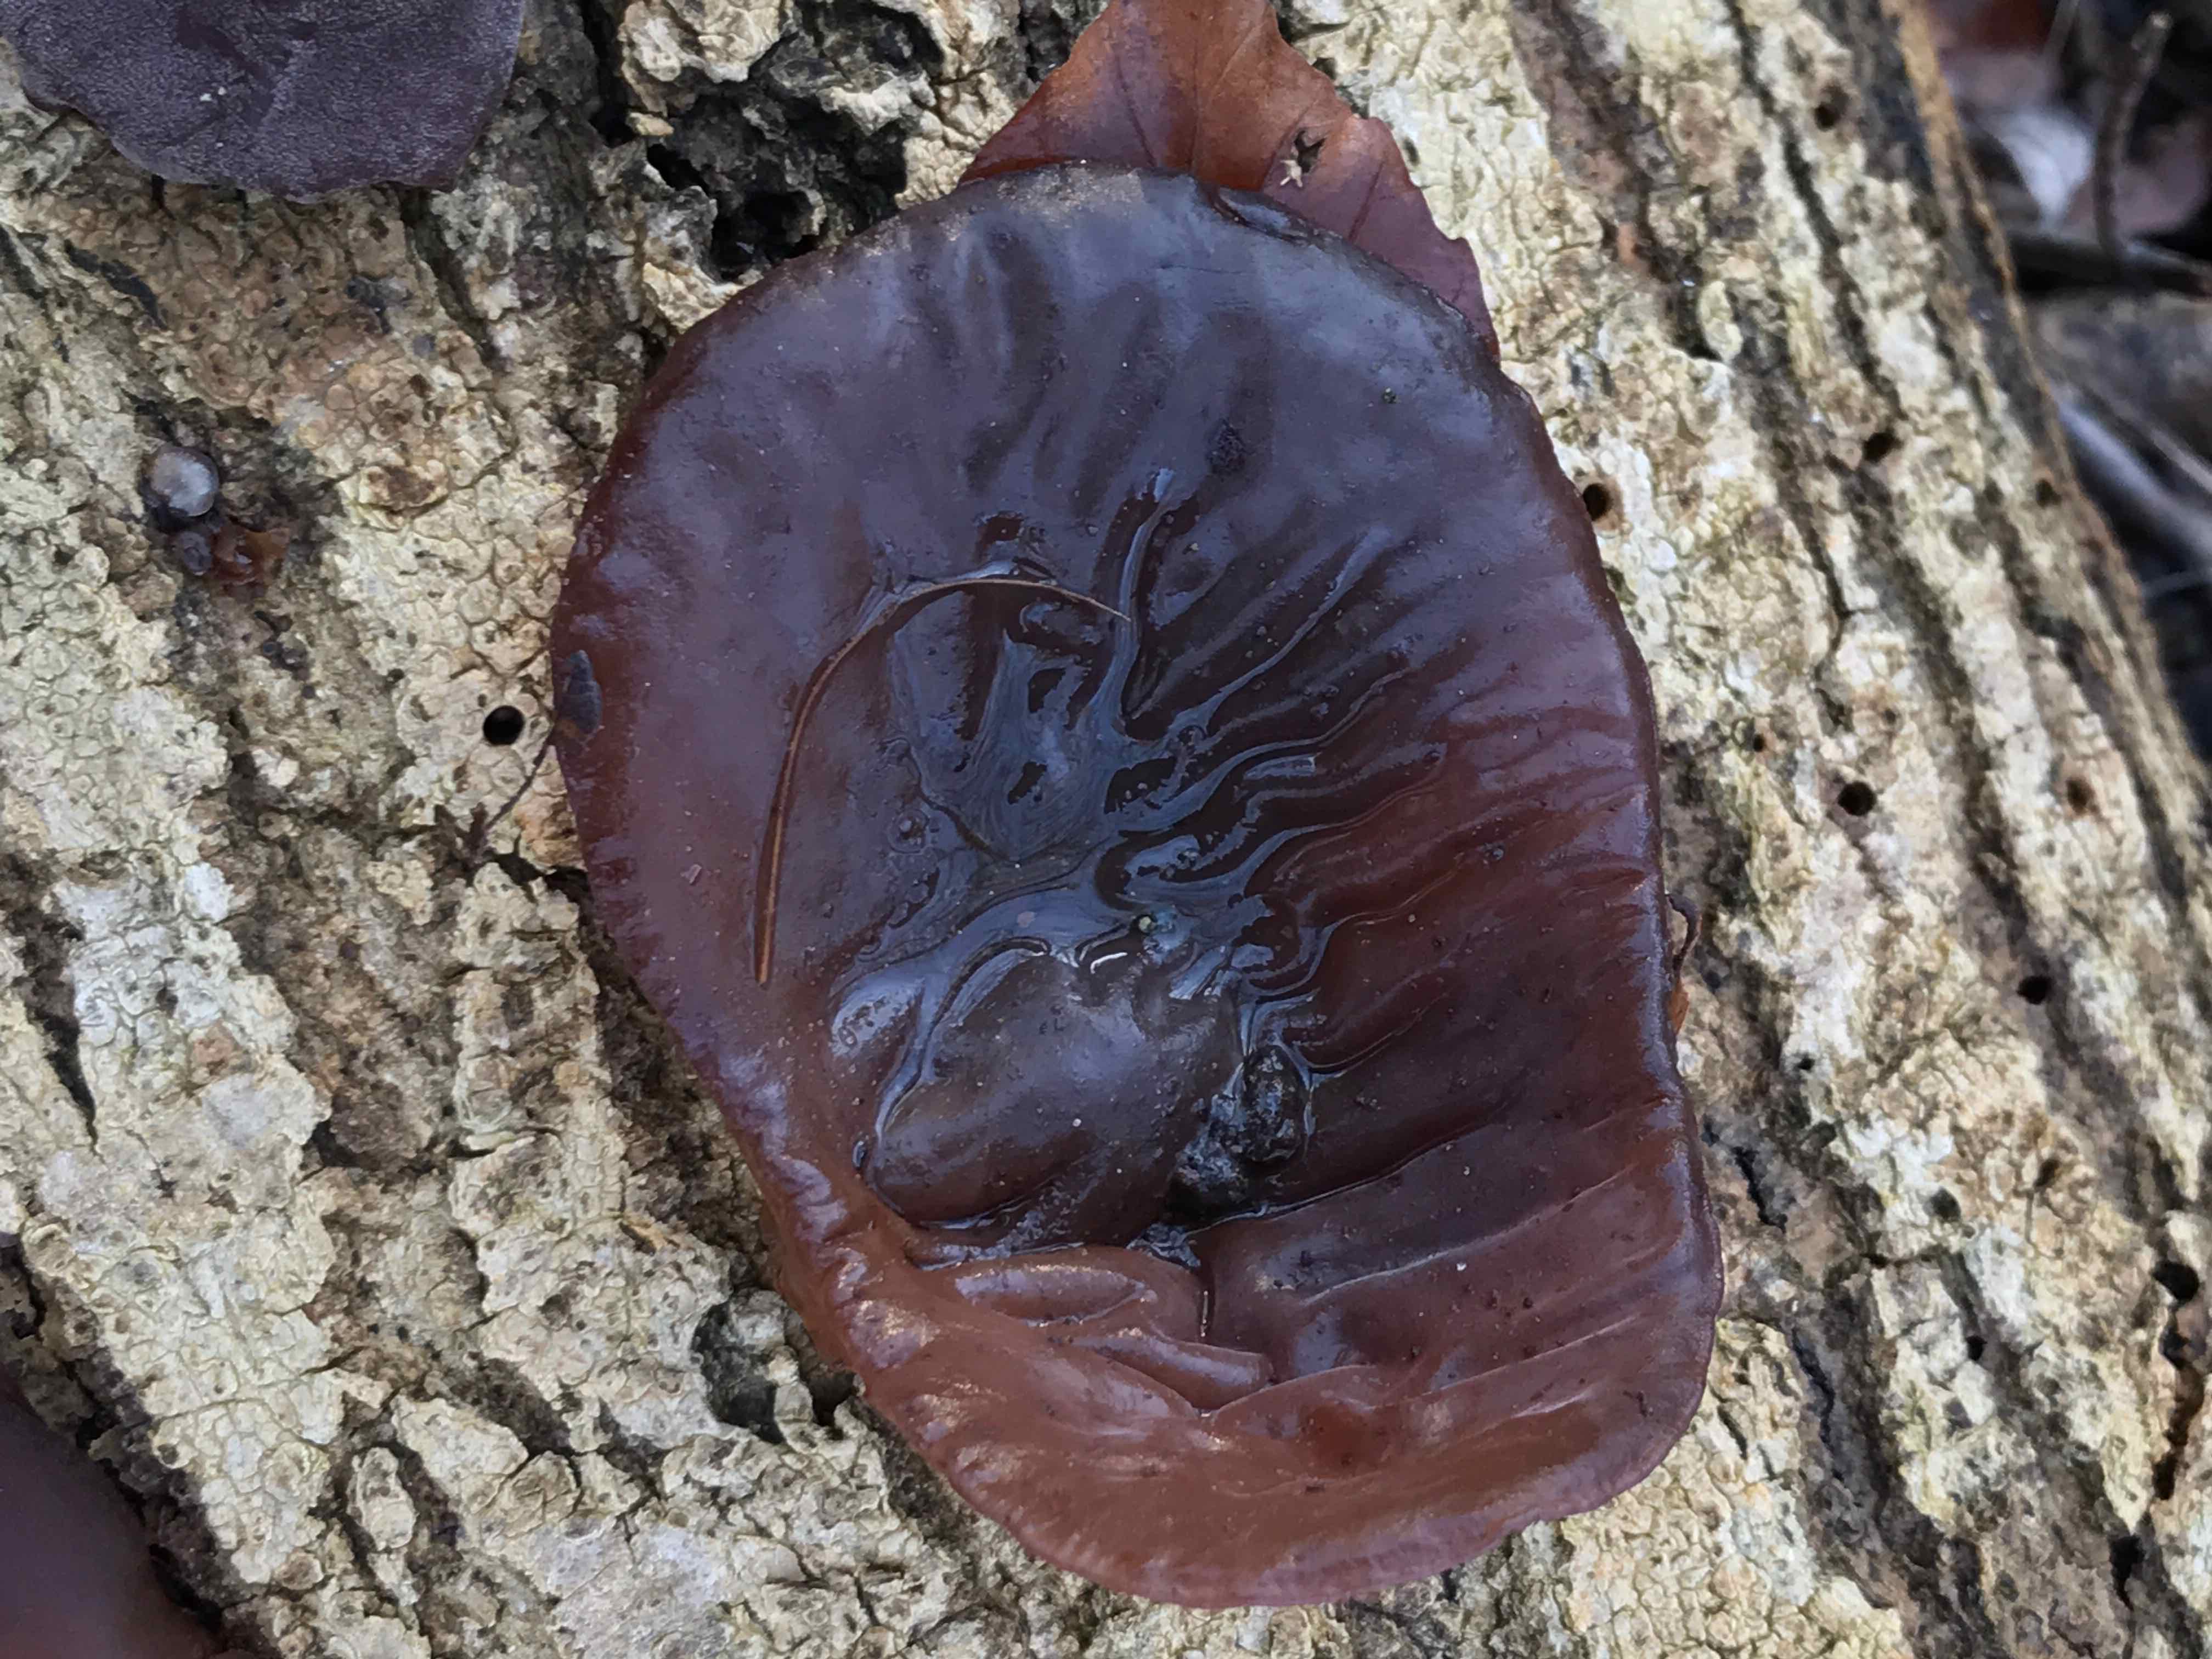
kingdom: Fungi
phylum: Basidiomycota
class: Agaricomycetes
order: Auriculariales
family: Auriculariaceae
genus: Auricularia
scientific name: Auricularia auricula-judae
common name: almindelig judasøre
